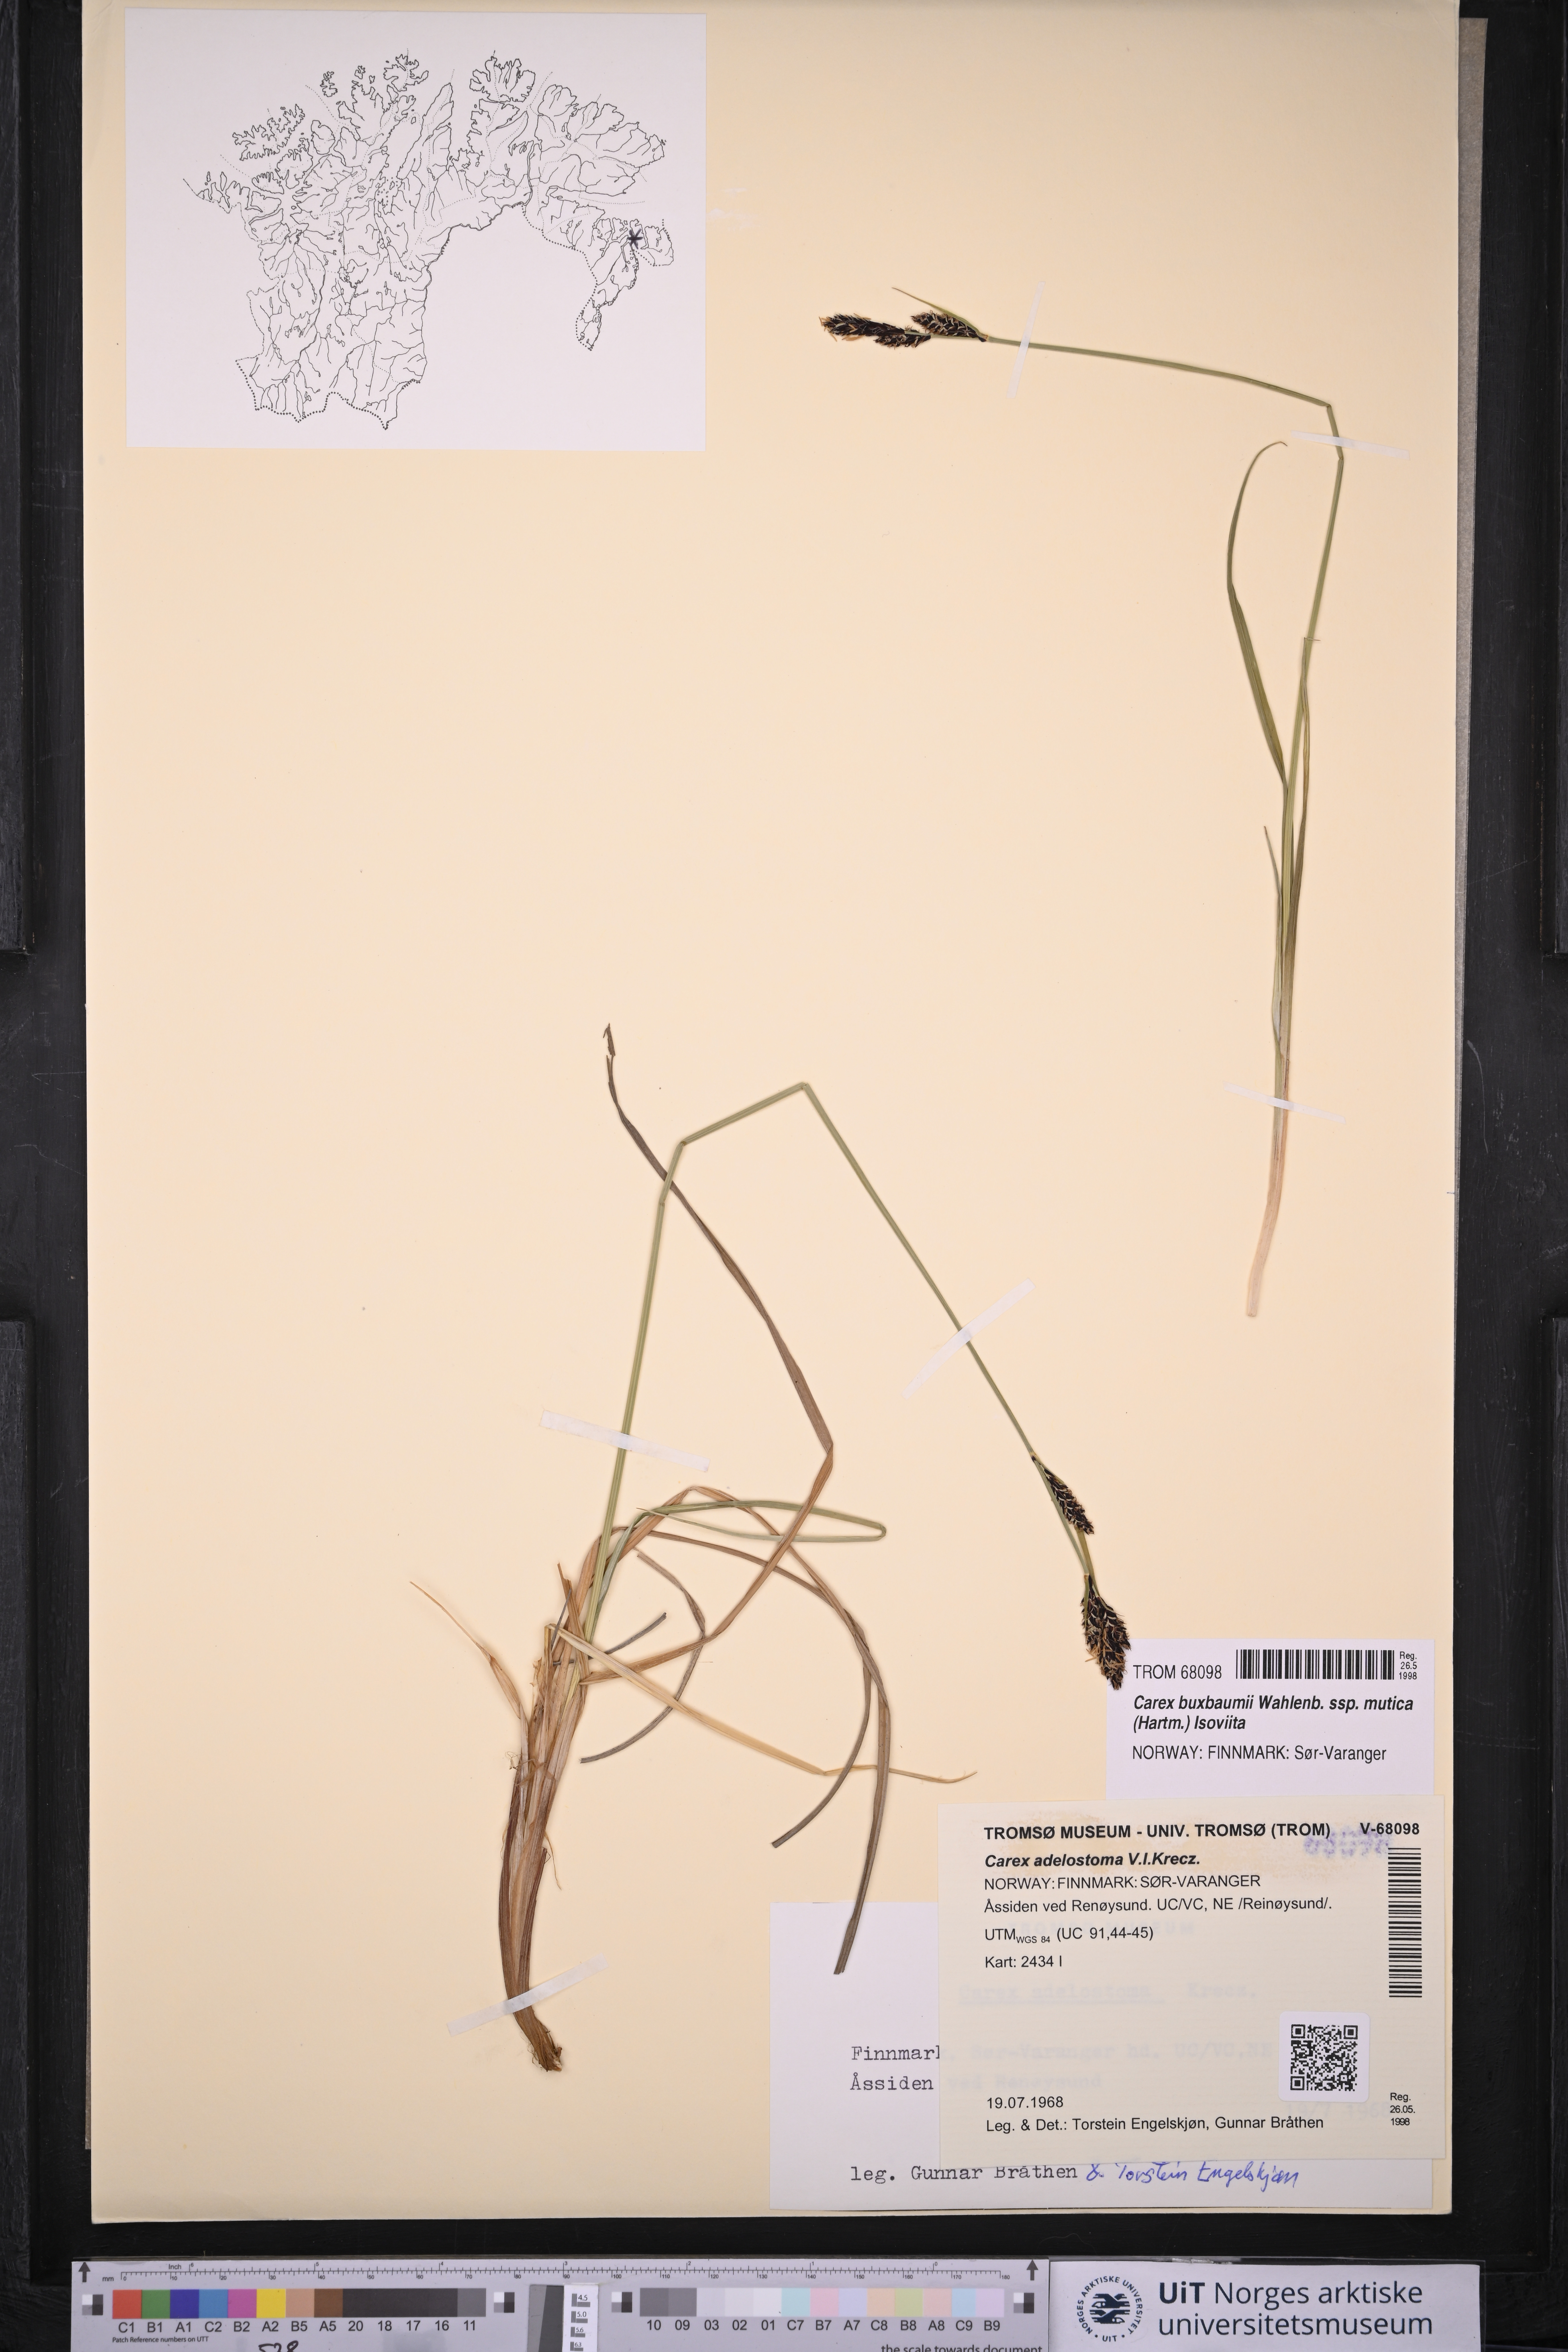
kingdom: Plantae
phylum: Tracheophyta
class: Liliopsida
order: Poales
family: Cyperaceae
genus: Carex
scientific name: Carex adelostoma
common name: Circumpolar sedge
